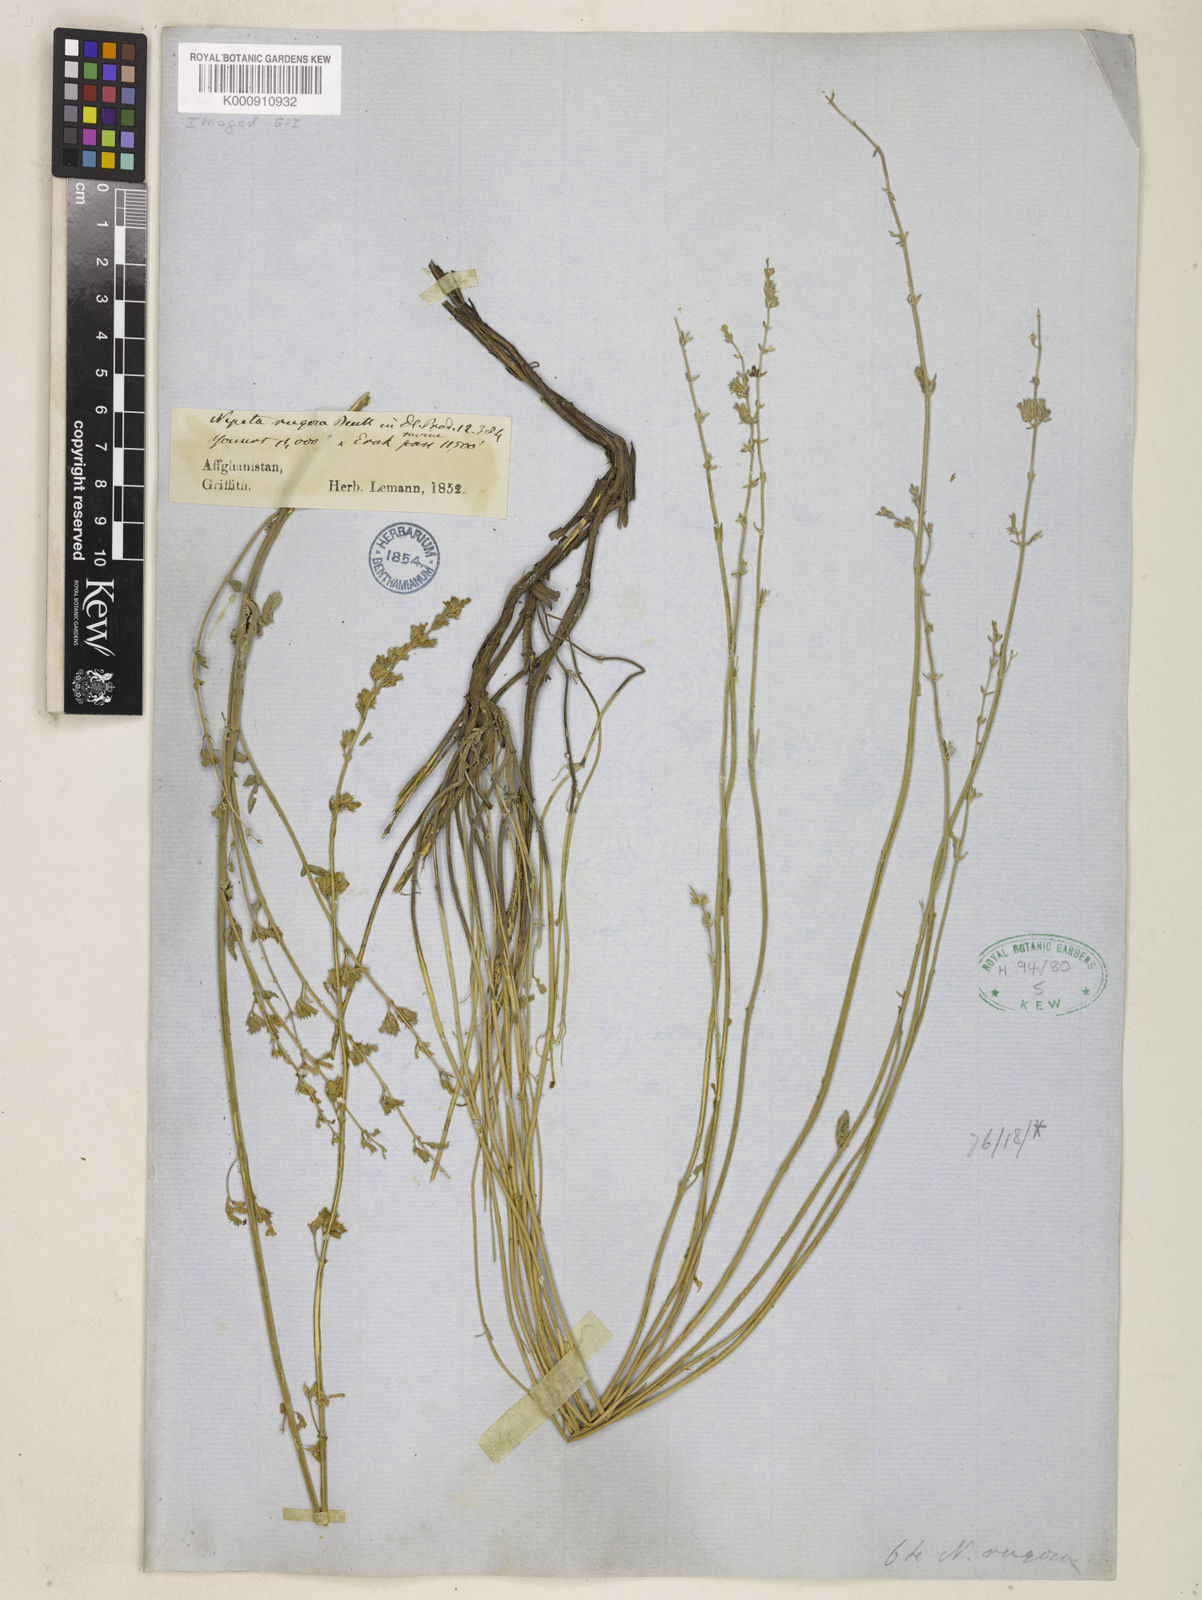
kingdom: Plantae
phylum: Tracheophyta
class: Magnoliopsida
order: Lamiales
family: Lamiaceae
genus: Nepeta
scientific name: Nepeta rugosa
